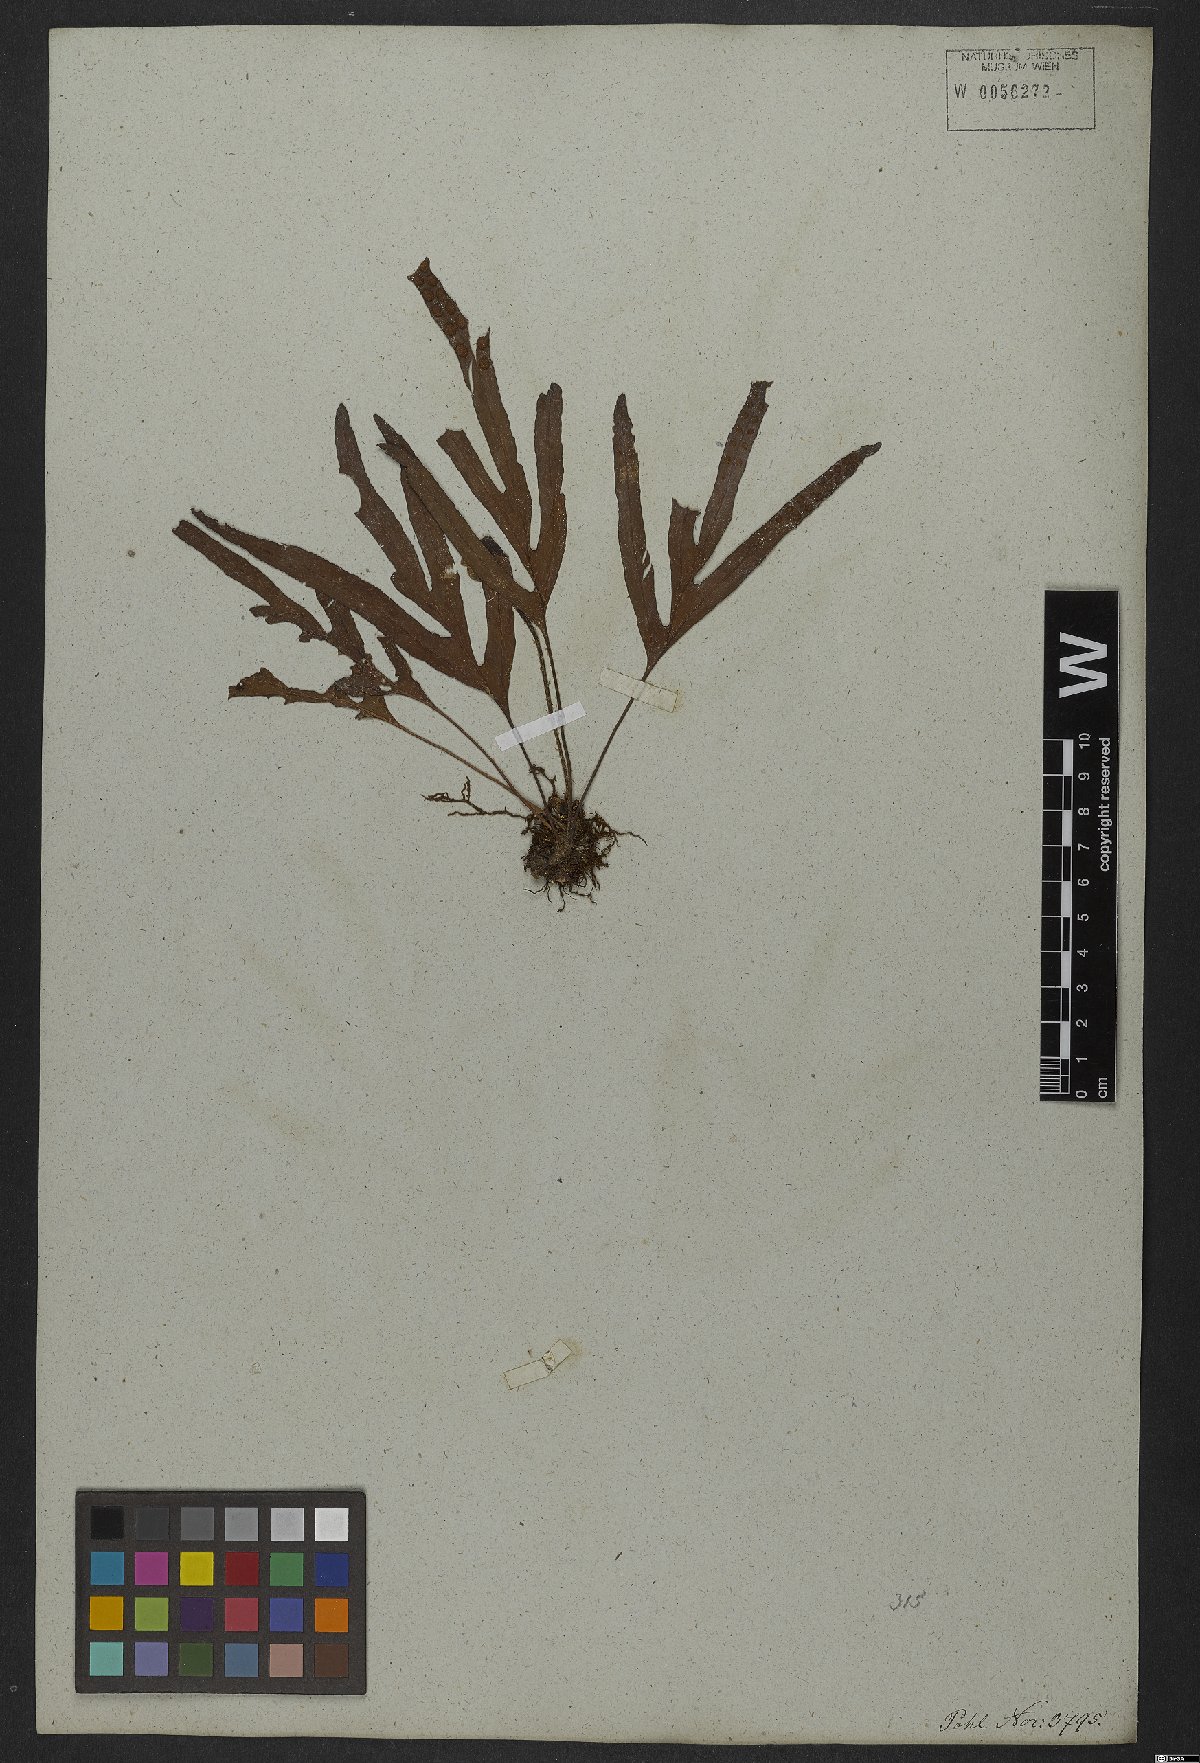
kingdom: Plantae
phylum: Tracheophyta
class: Polypodiopsida
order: Polypodiales
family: Polypodiaceae
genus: Pleopeltis
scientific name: Pleopeltis angusta
